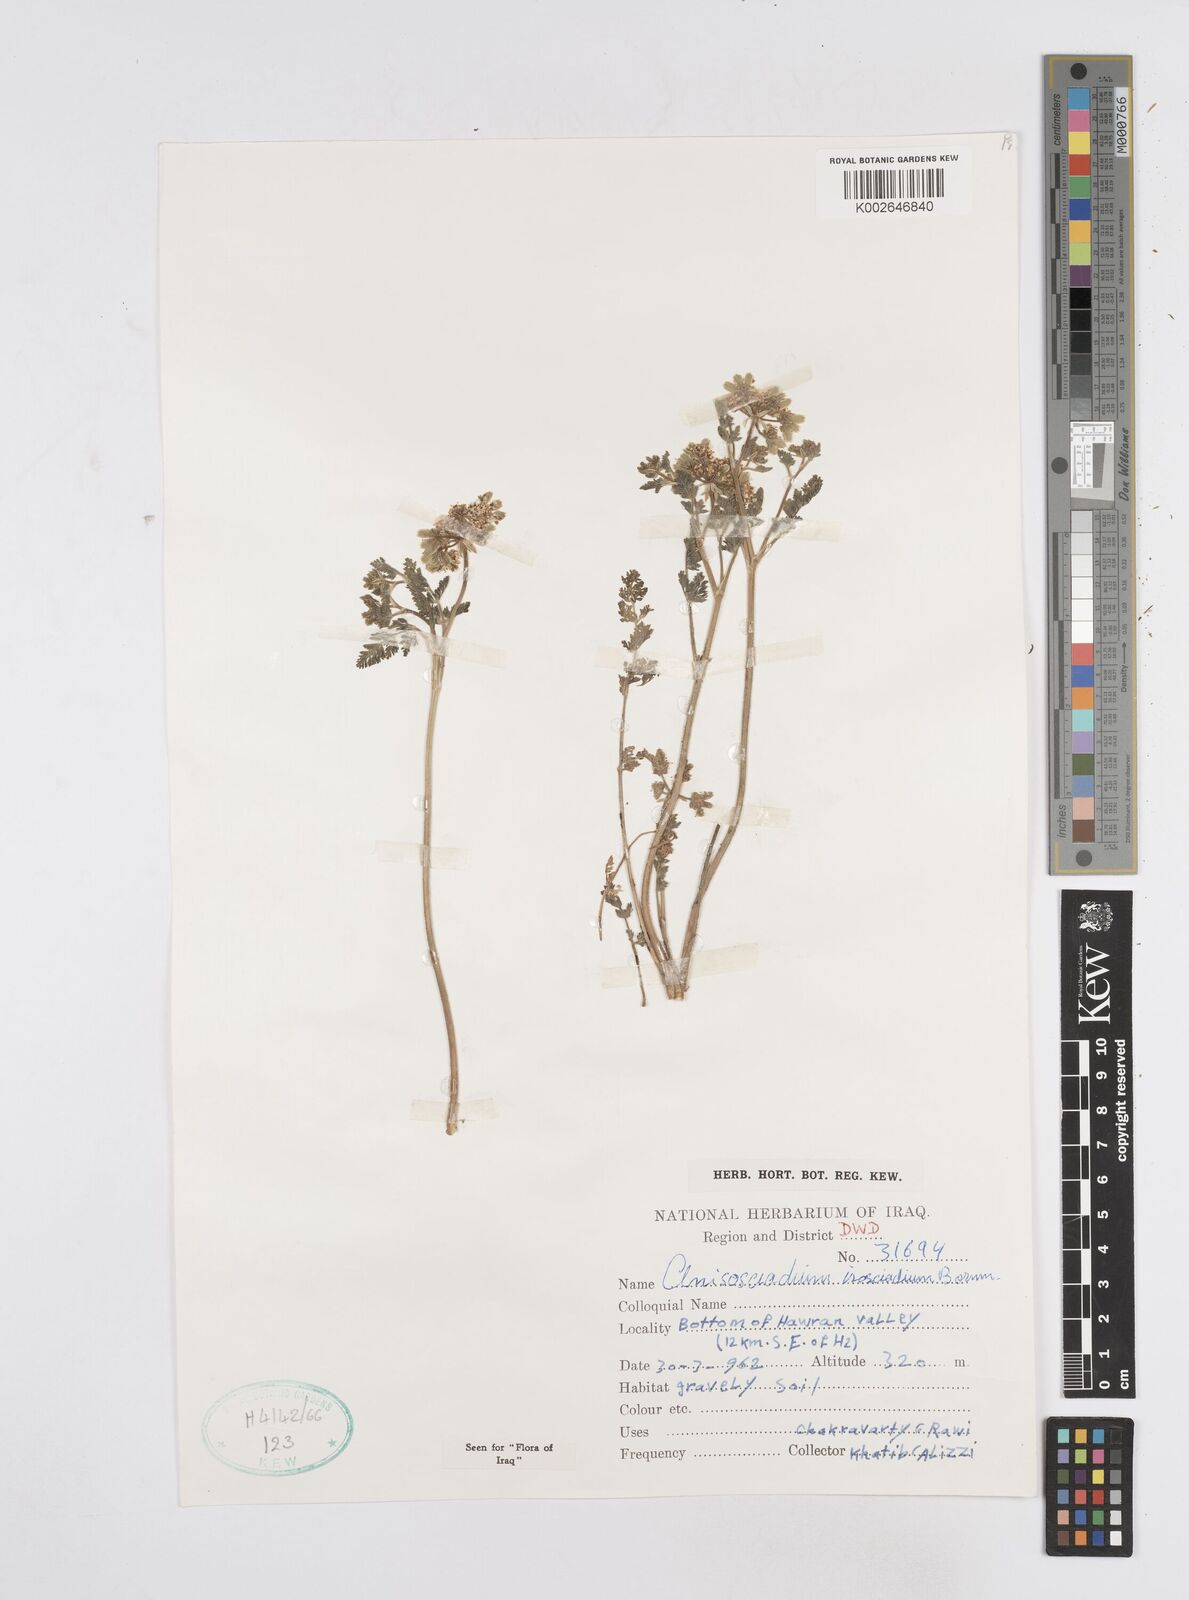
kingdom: Plantae
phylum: Tracheophyta
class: Magnoliopsida
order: Apiales
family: Apiaceae
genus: Anisosciadium
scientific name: Anisosciadium isosciadium
